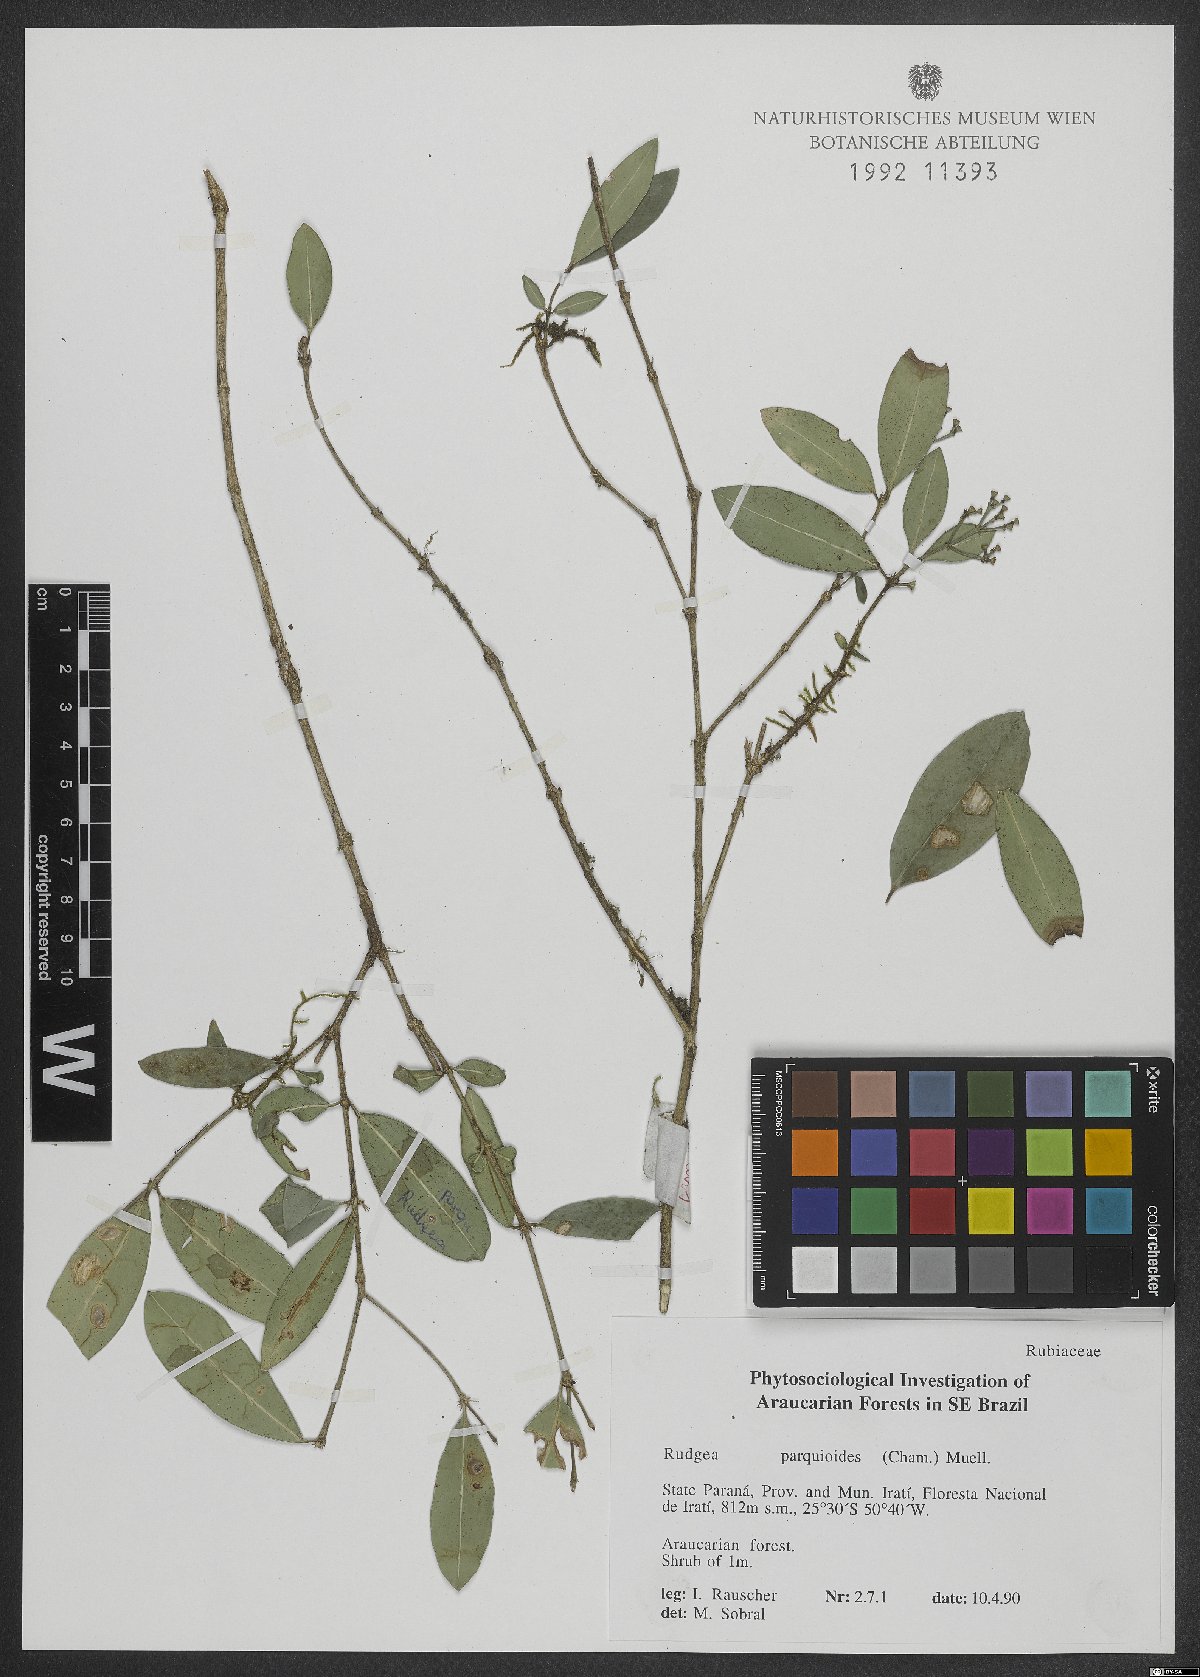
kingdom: Plantae
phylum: Tracheophyta
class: Magnoliopsida
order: Gentianales
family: Rubiaceae
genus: Rudgea
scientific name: Rudgea parquioides
